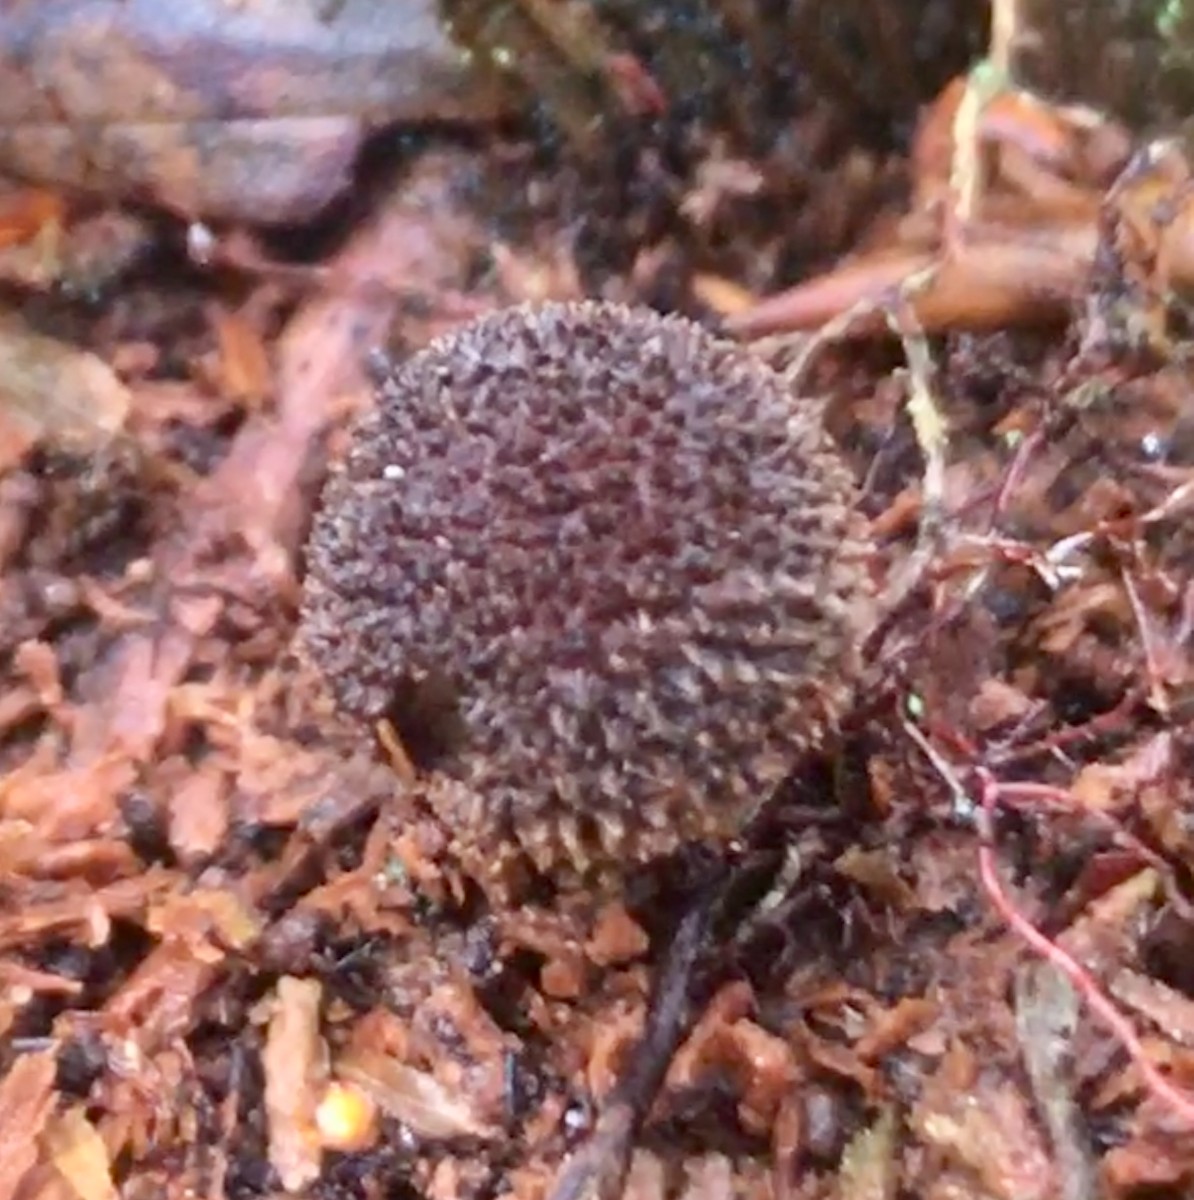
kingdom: Fungi
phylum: Basidiomycota
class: Agaricomycetes
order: Agaricales
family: Inocybaceae
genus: Inocybe
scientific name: Inocybe
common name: trævlhat
